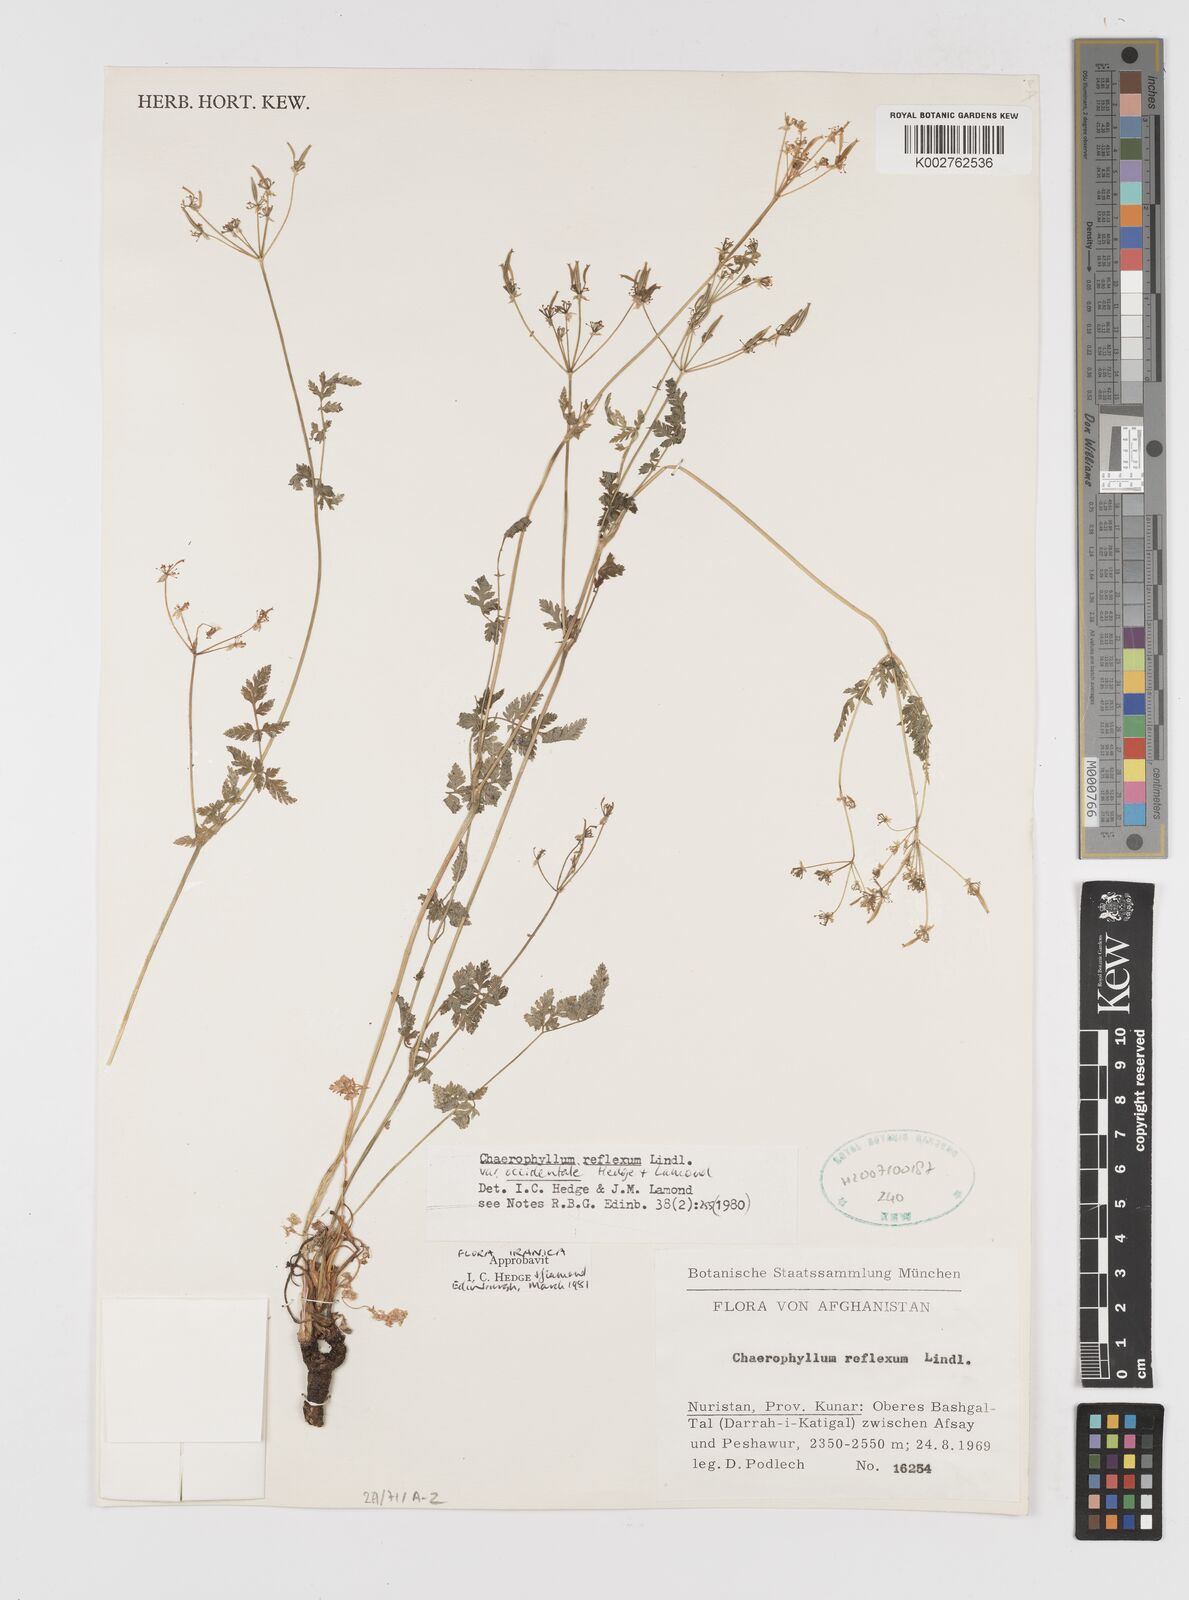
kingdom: Plantae
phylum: Tracheophyta
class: Magnoliopsida
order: Apiales
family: Apiaceae
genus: Chaerophyllum
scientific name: Chaerophyllum reflexum
